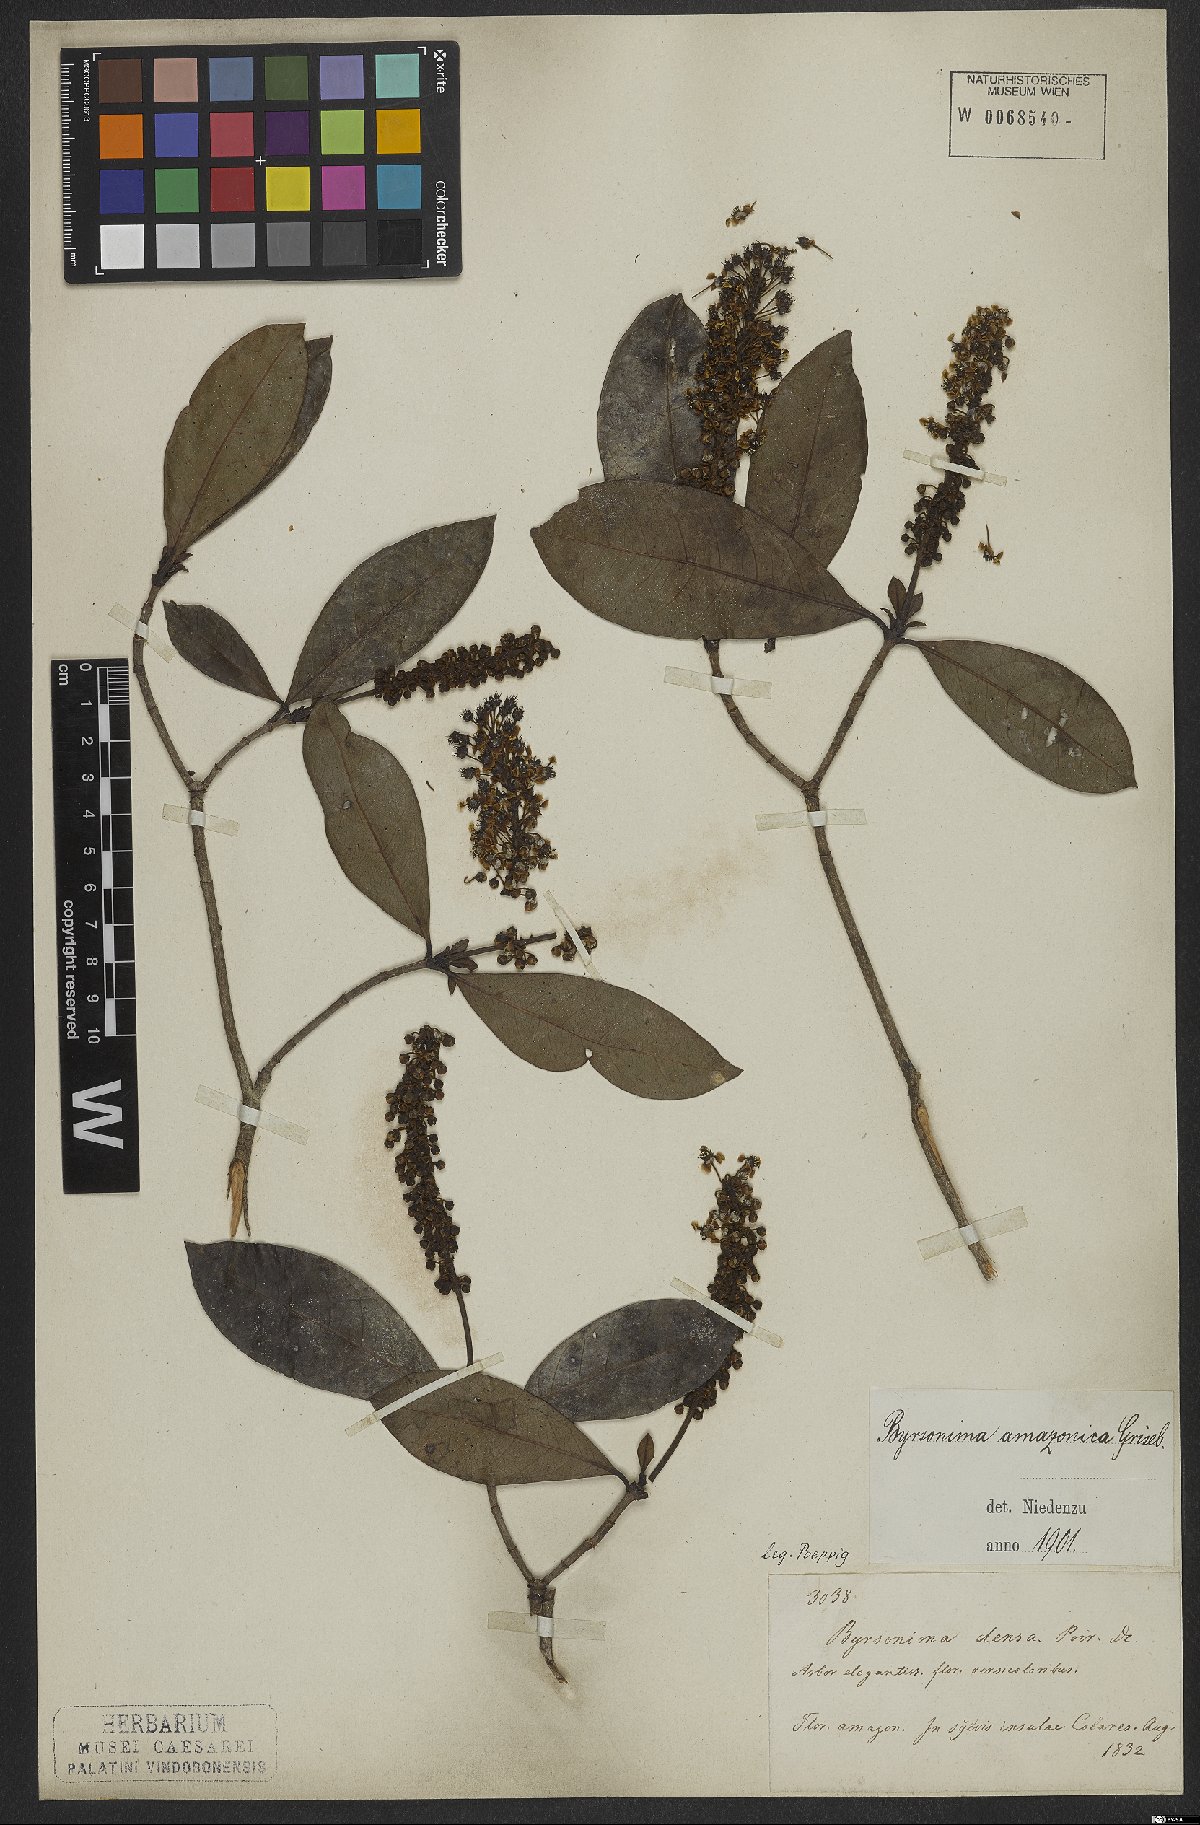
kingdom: Plantae
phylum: Tracheophyta
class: Magnoliopsida
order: Malpighiales
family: Malpighiaceae
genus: Byrsonima
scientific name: Byrsonima densa
